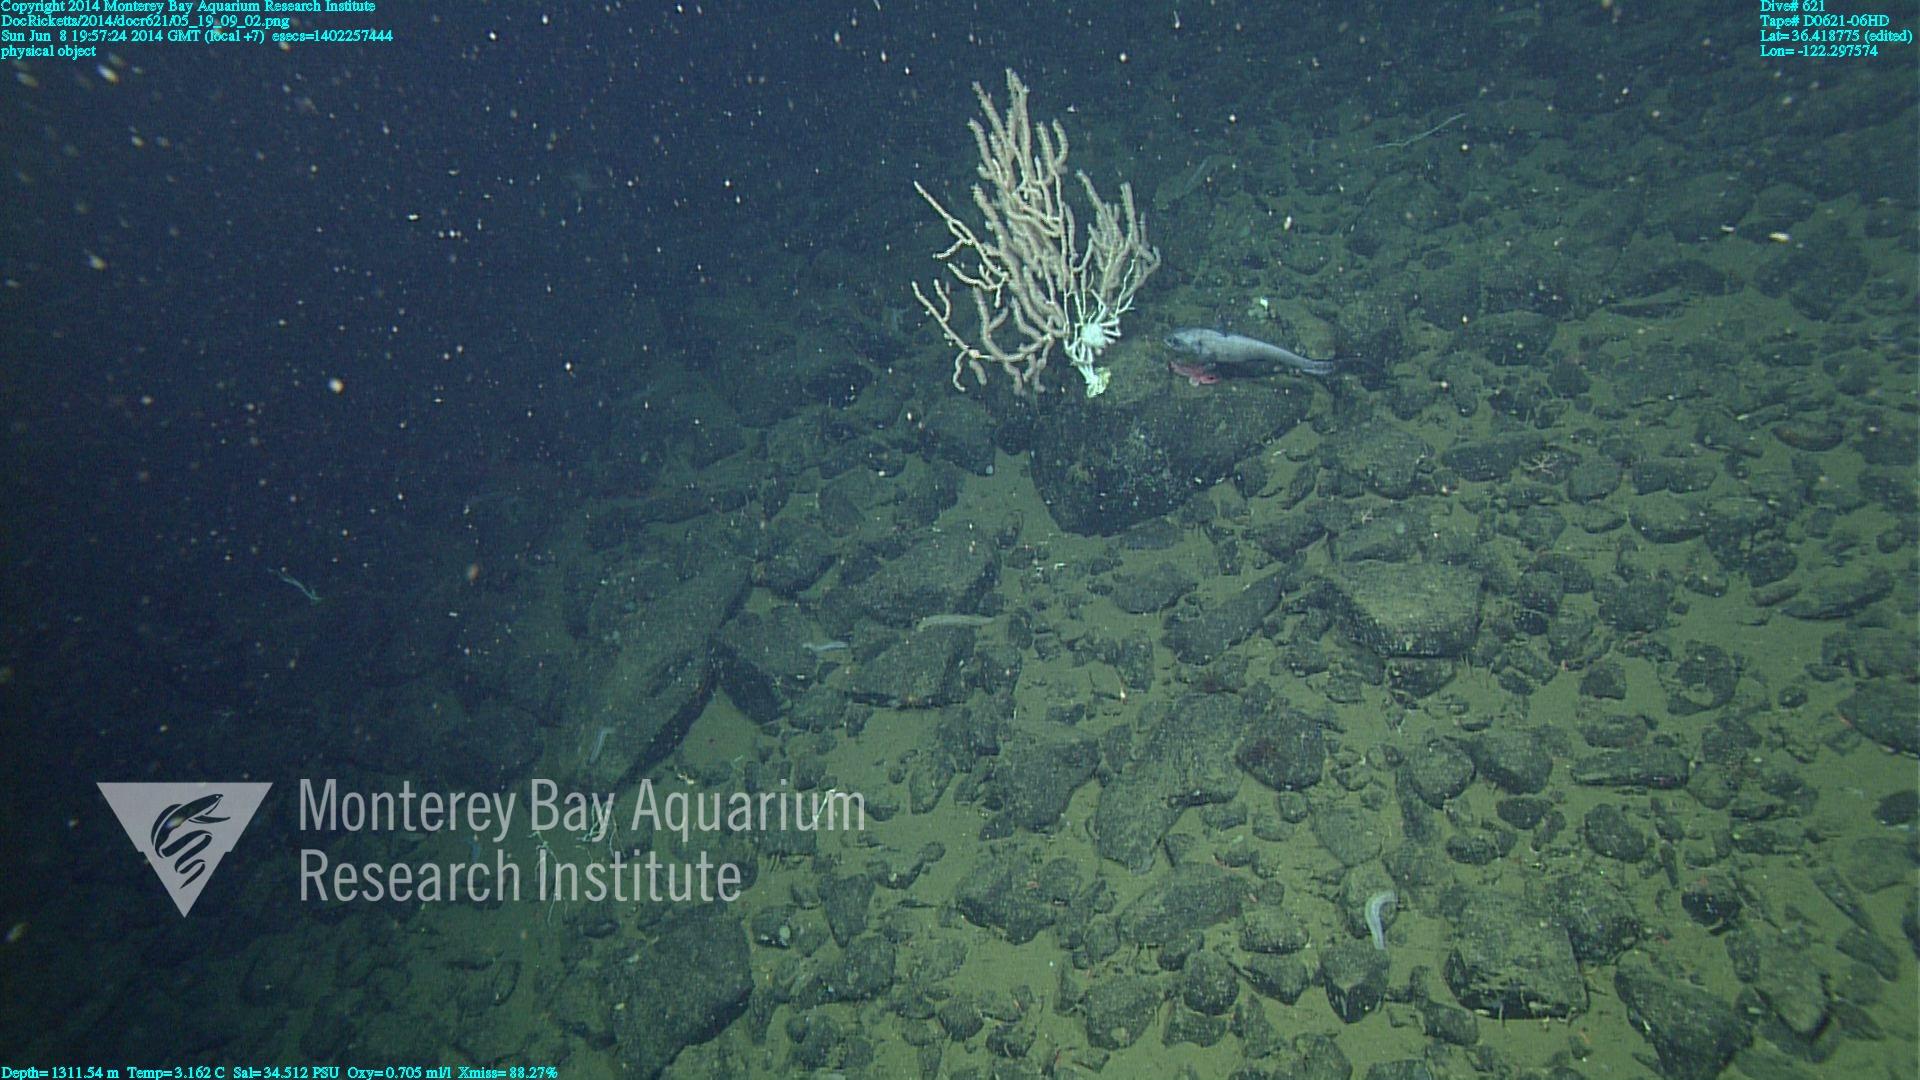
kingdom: Animalia
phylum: Cnidaria
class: Anthozoa
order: Scleralcyonacea
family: Keratoisididae
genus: Keratoisis
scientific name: Keratoisis
